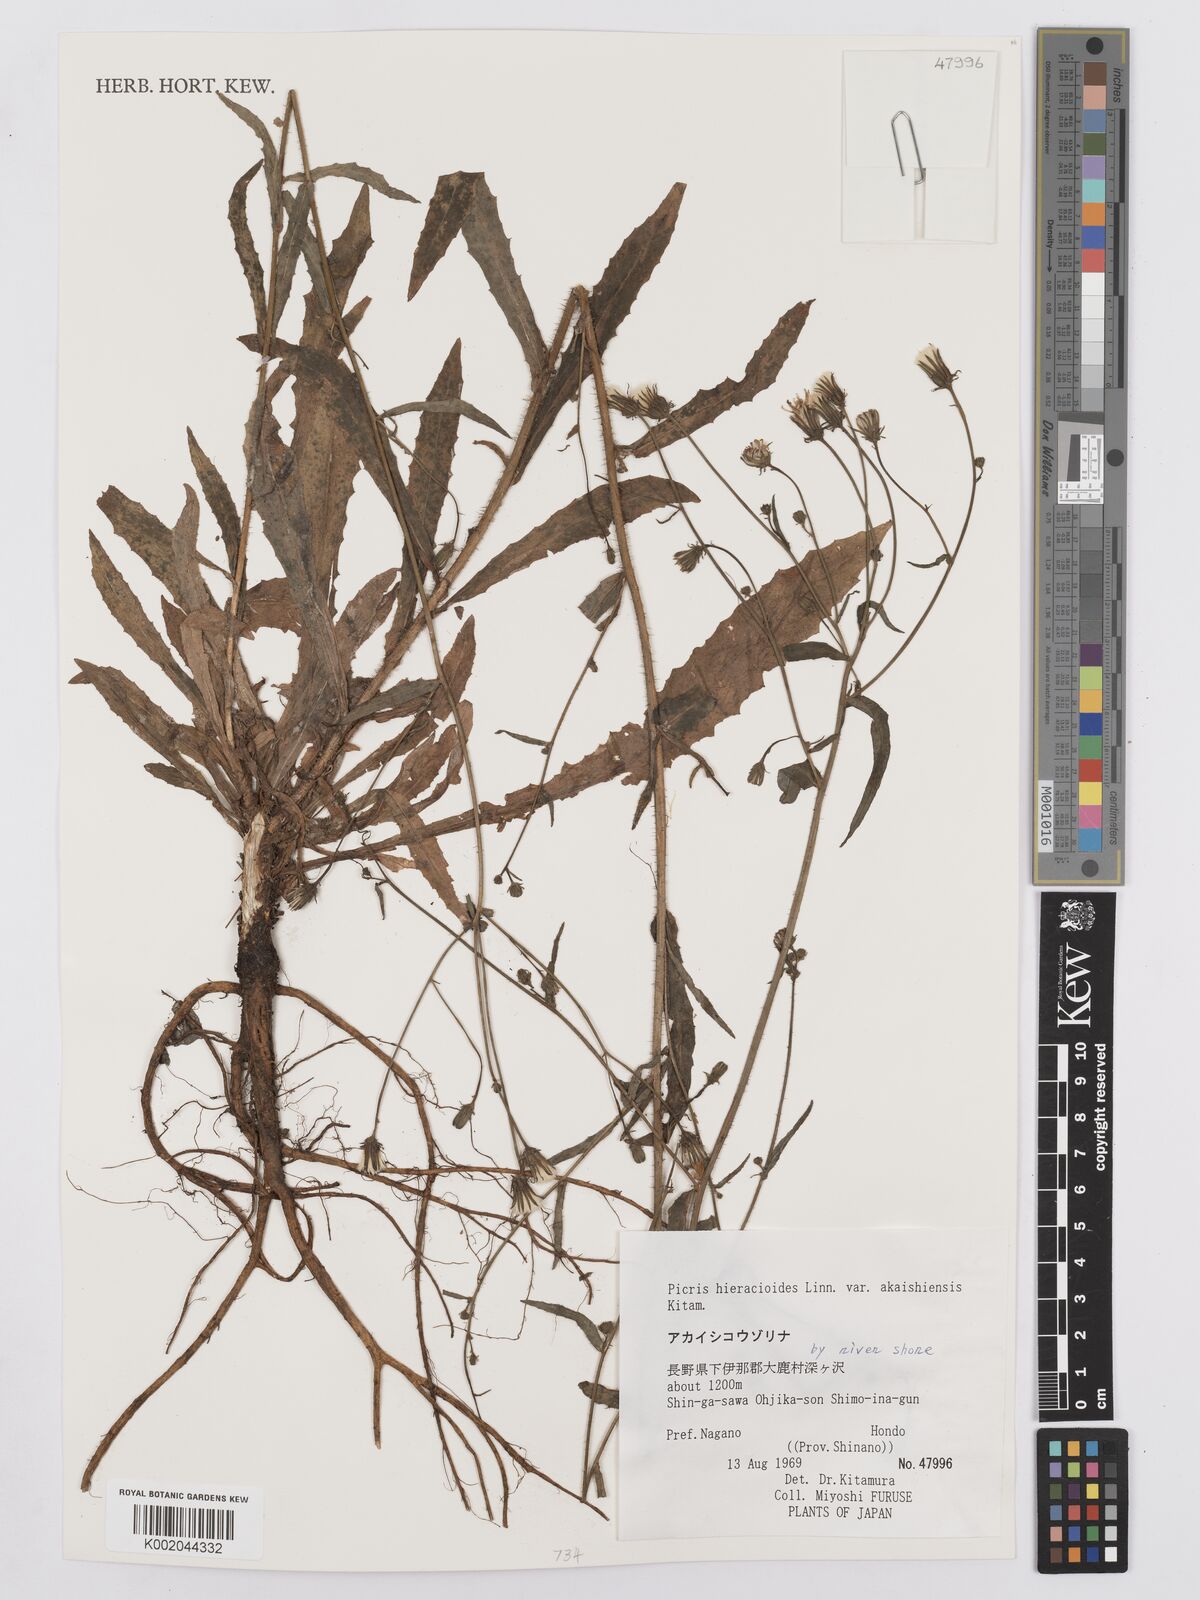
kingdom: Plantae
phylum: Tracheophyta
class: Magnoliopsida
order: Asterales
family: Asteraceae
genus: Picris
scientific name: Picris hieracioides
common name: Hawkweed oxtongue
